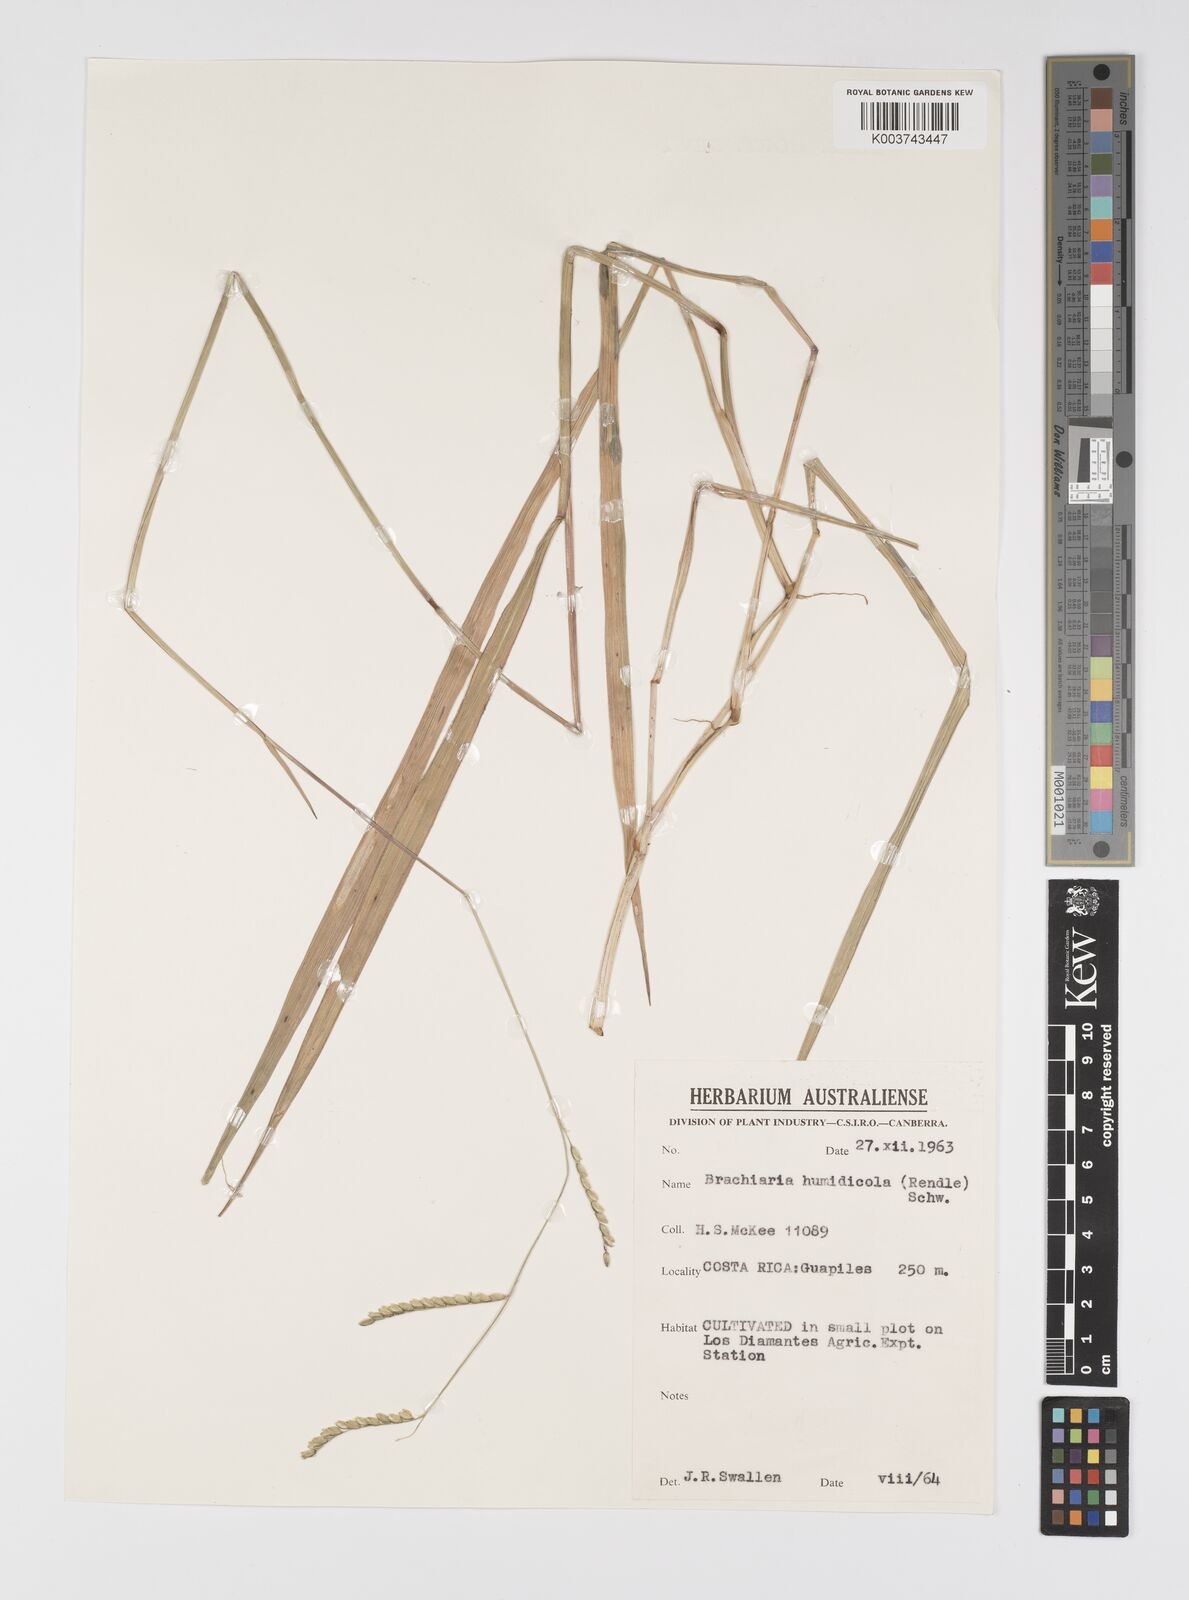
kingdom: Plantae
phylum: Tracheophyta
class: Liliopsida
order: Poales
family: Poaceae
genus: Urochloa
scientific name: Urochloa dictyoneura
